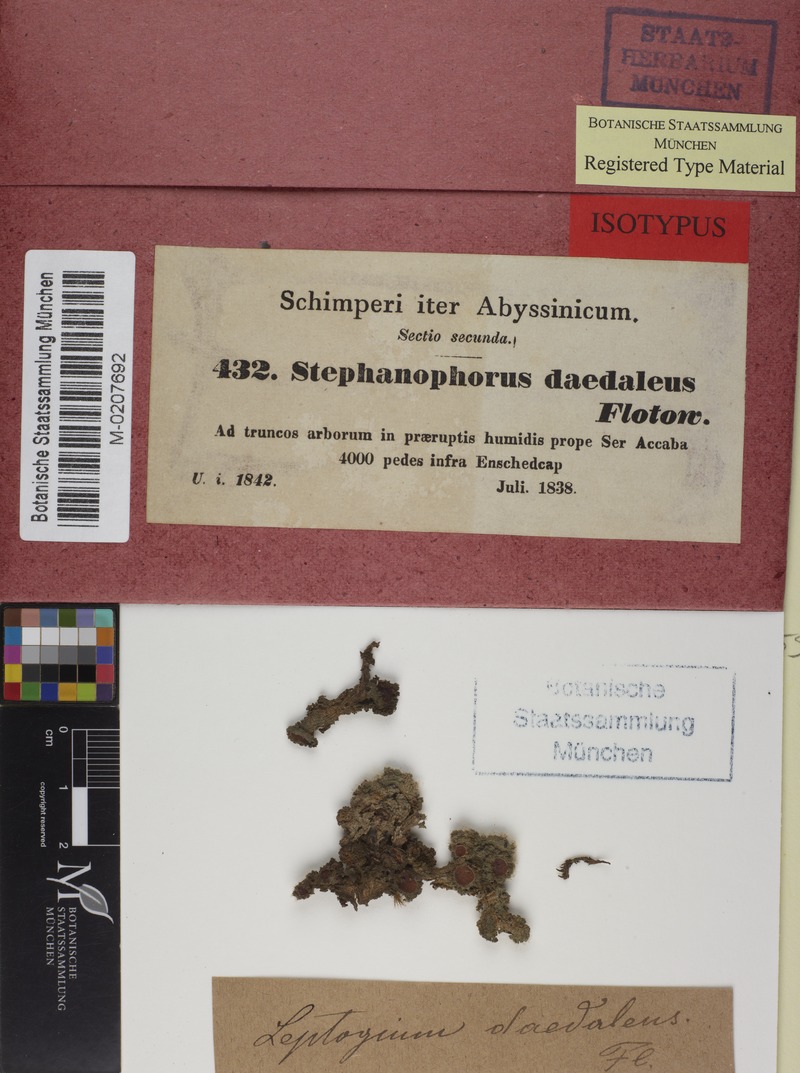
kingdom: Fungi
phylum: Ascomycota
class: Lecanoromycetes
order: Peltigerales
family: Collemataceae
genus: Leptogium
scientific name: Leptogium daedalum
